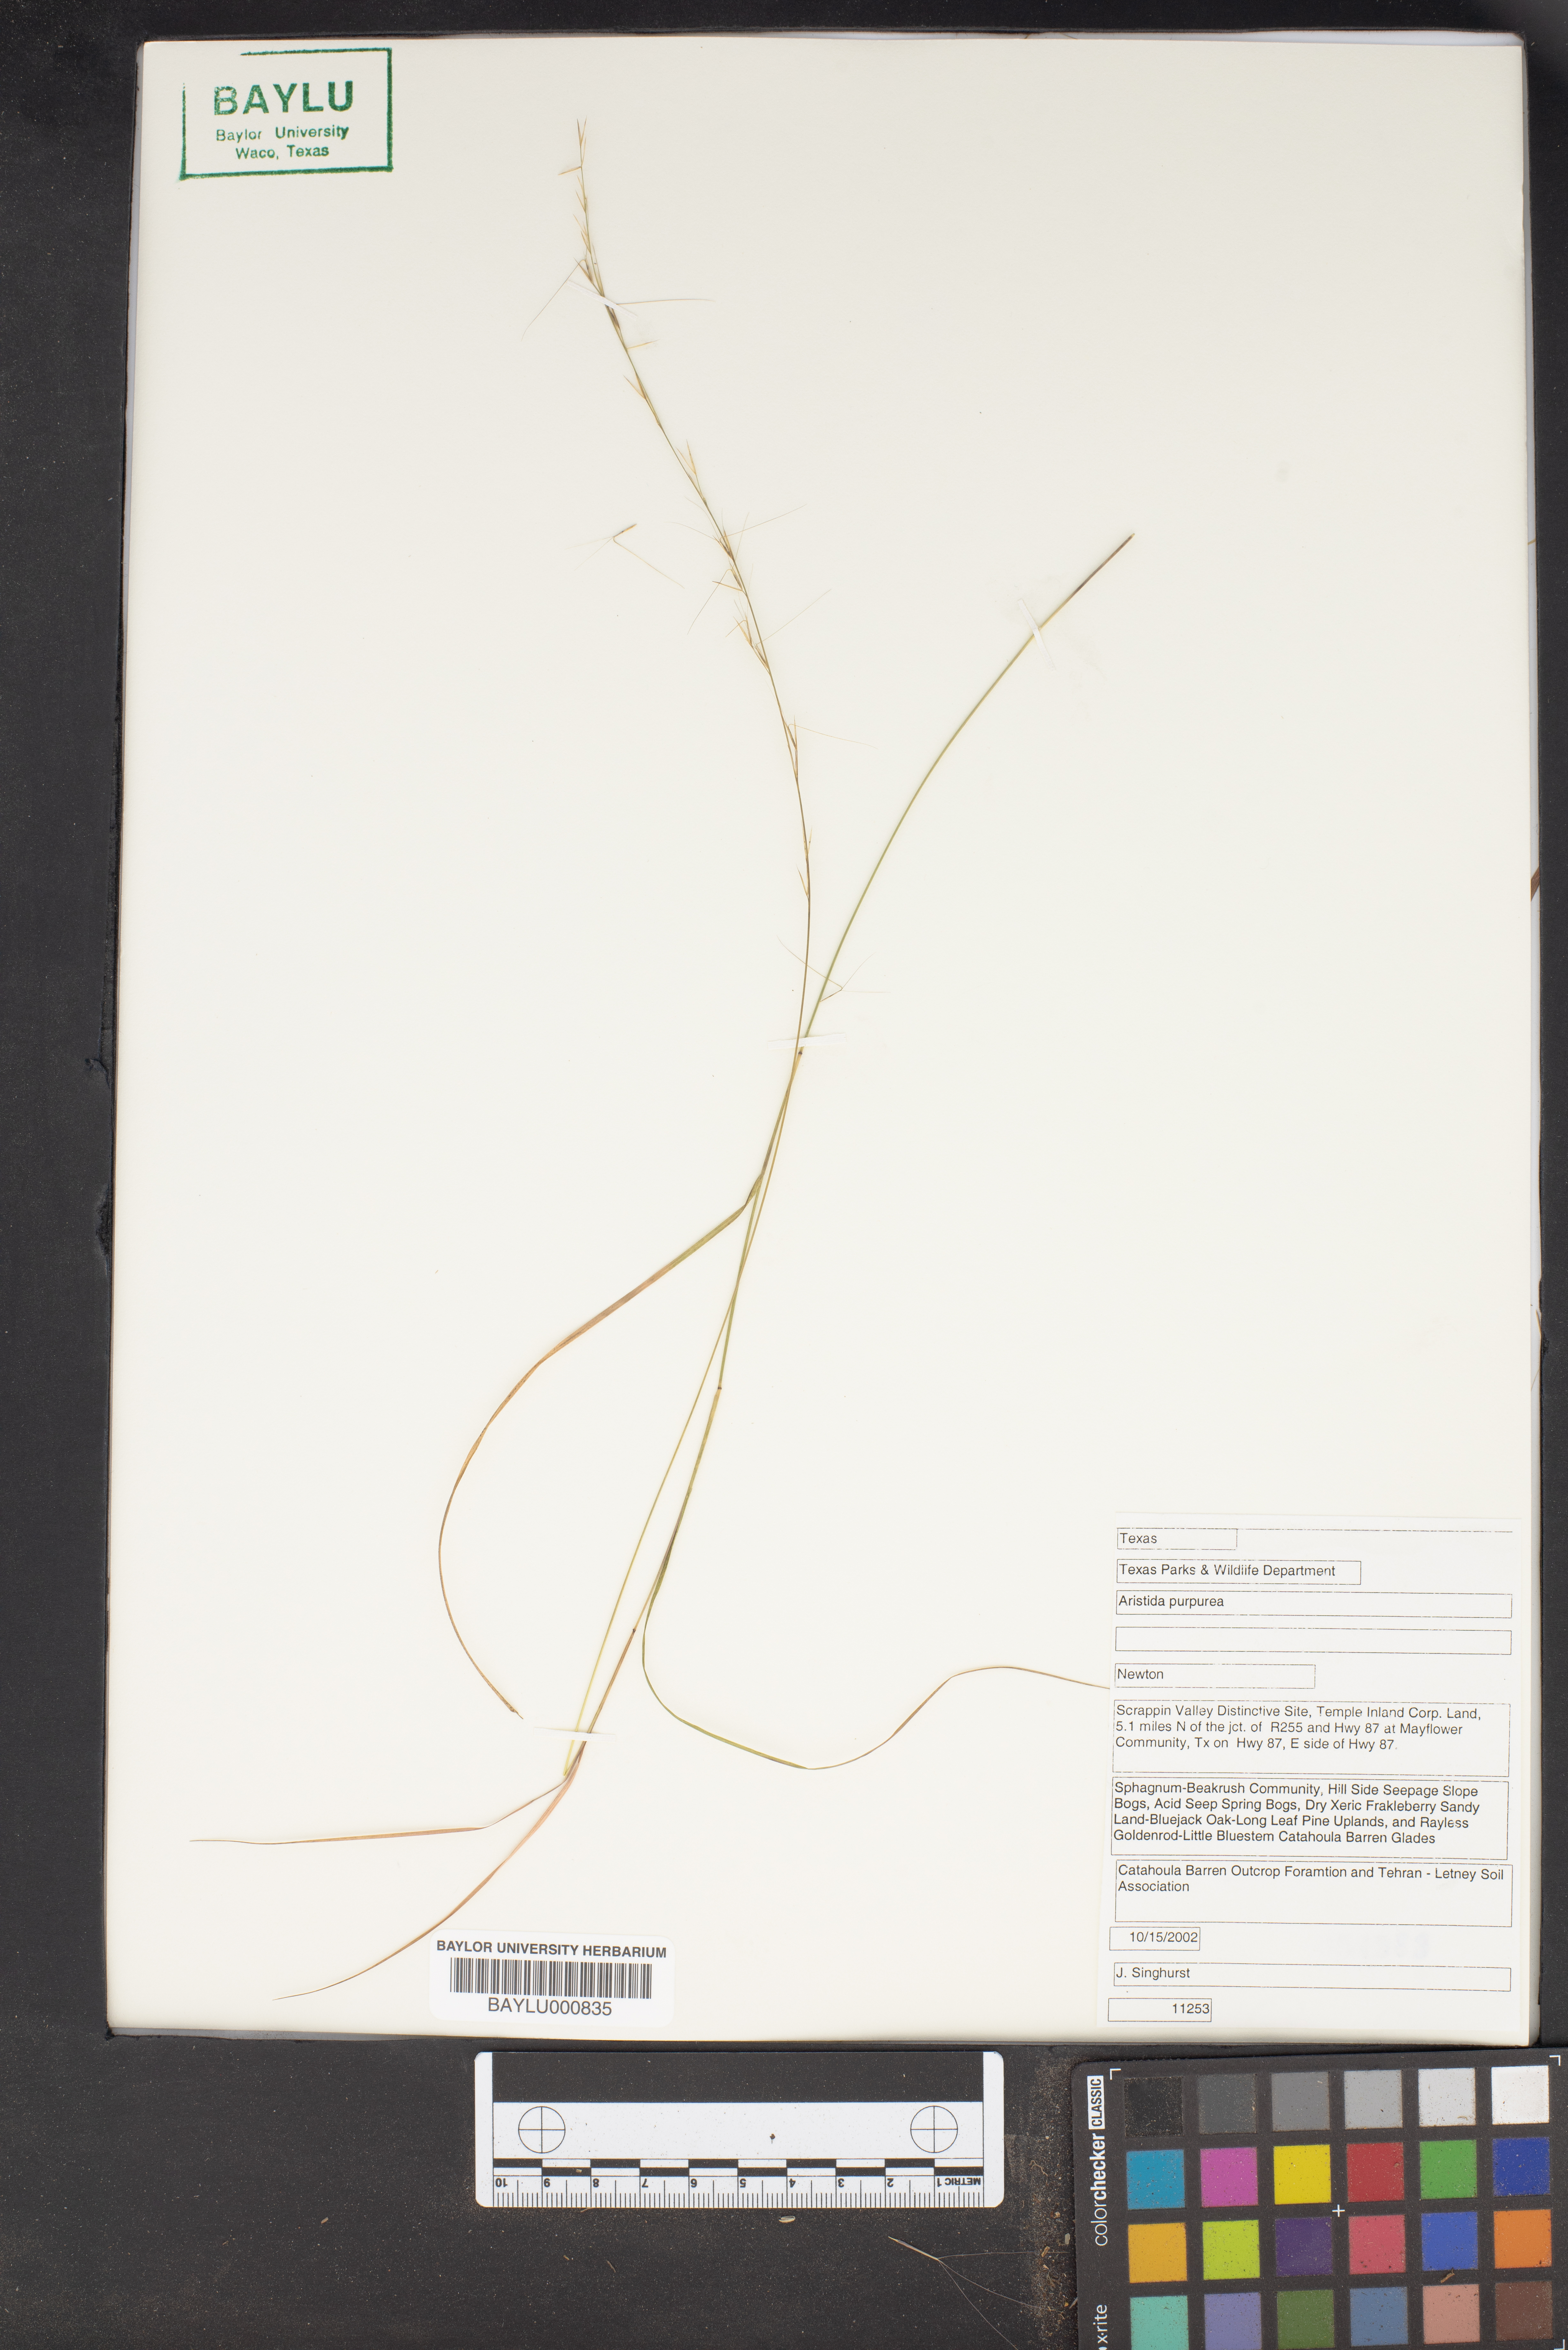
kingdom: Plantae
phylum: Tracheophyta
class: Liliopsida
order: Poales
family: Poaceae
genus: Aristida
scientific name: Aristida purpurea
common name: Purple threeawn
